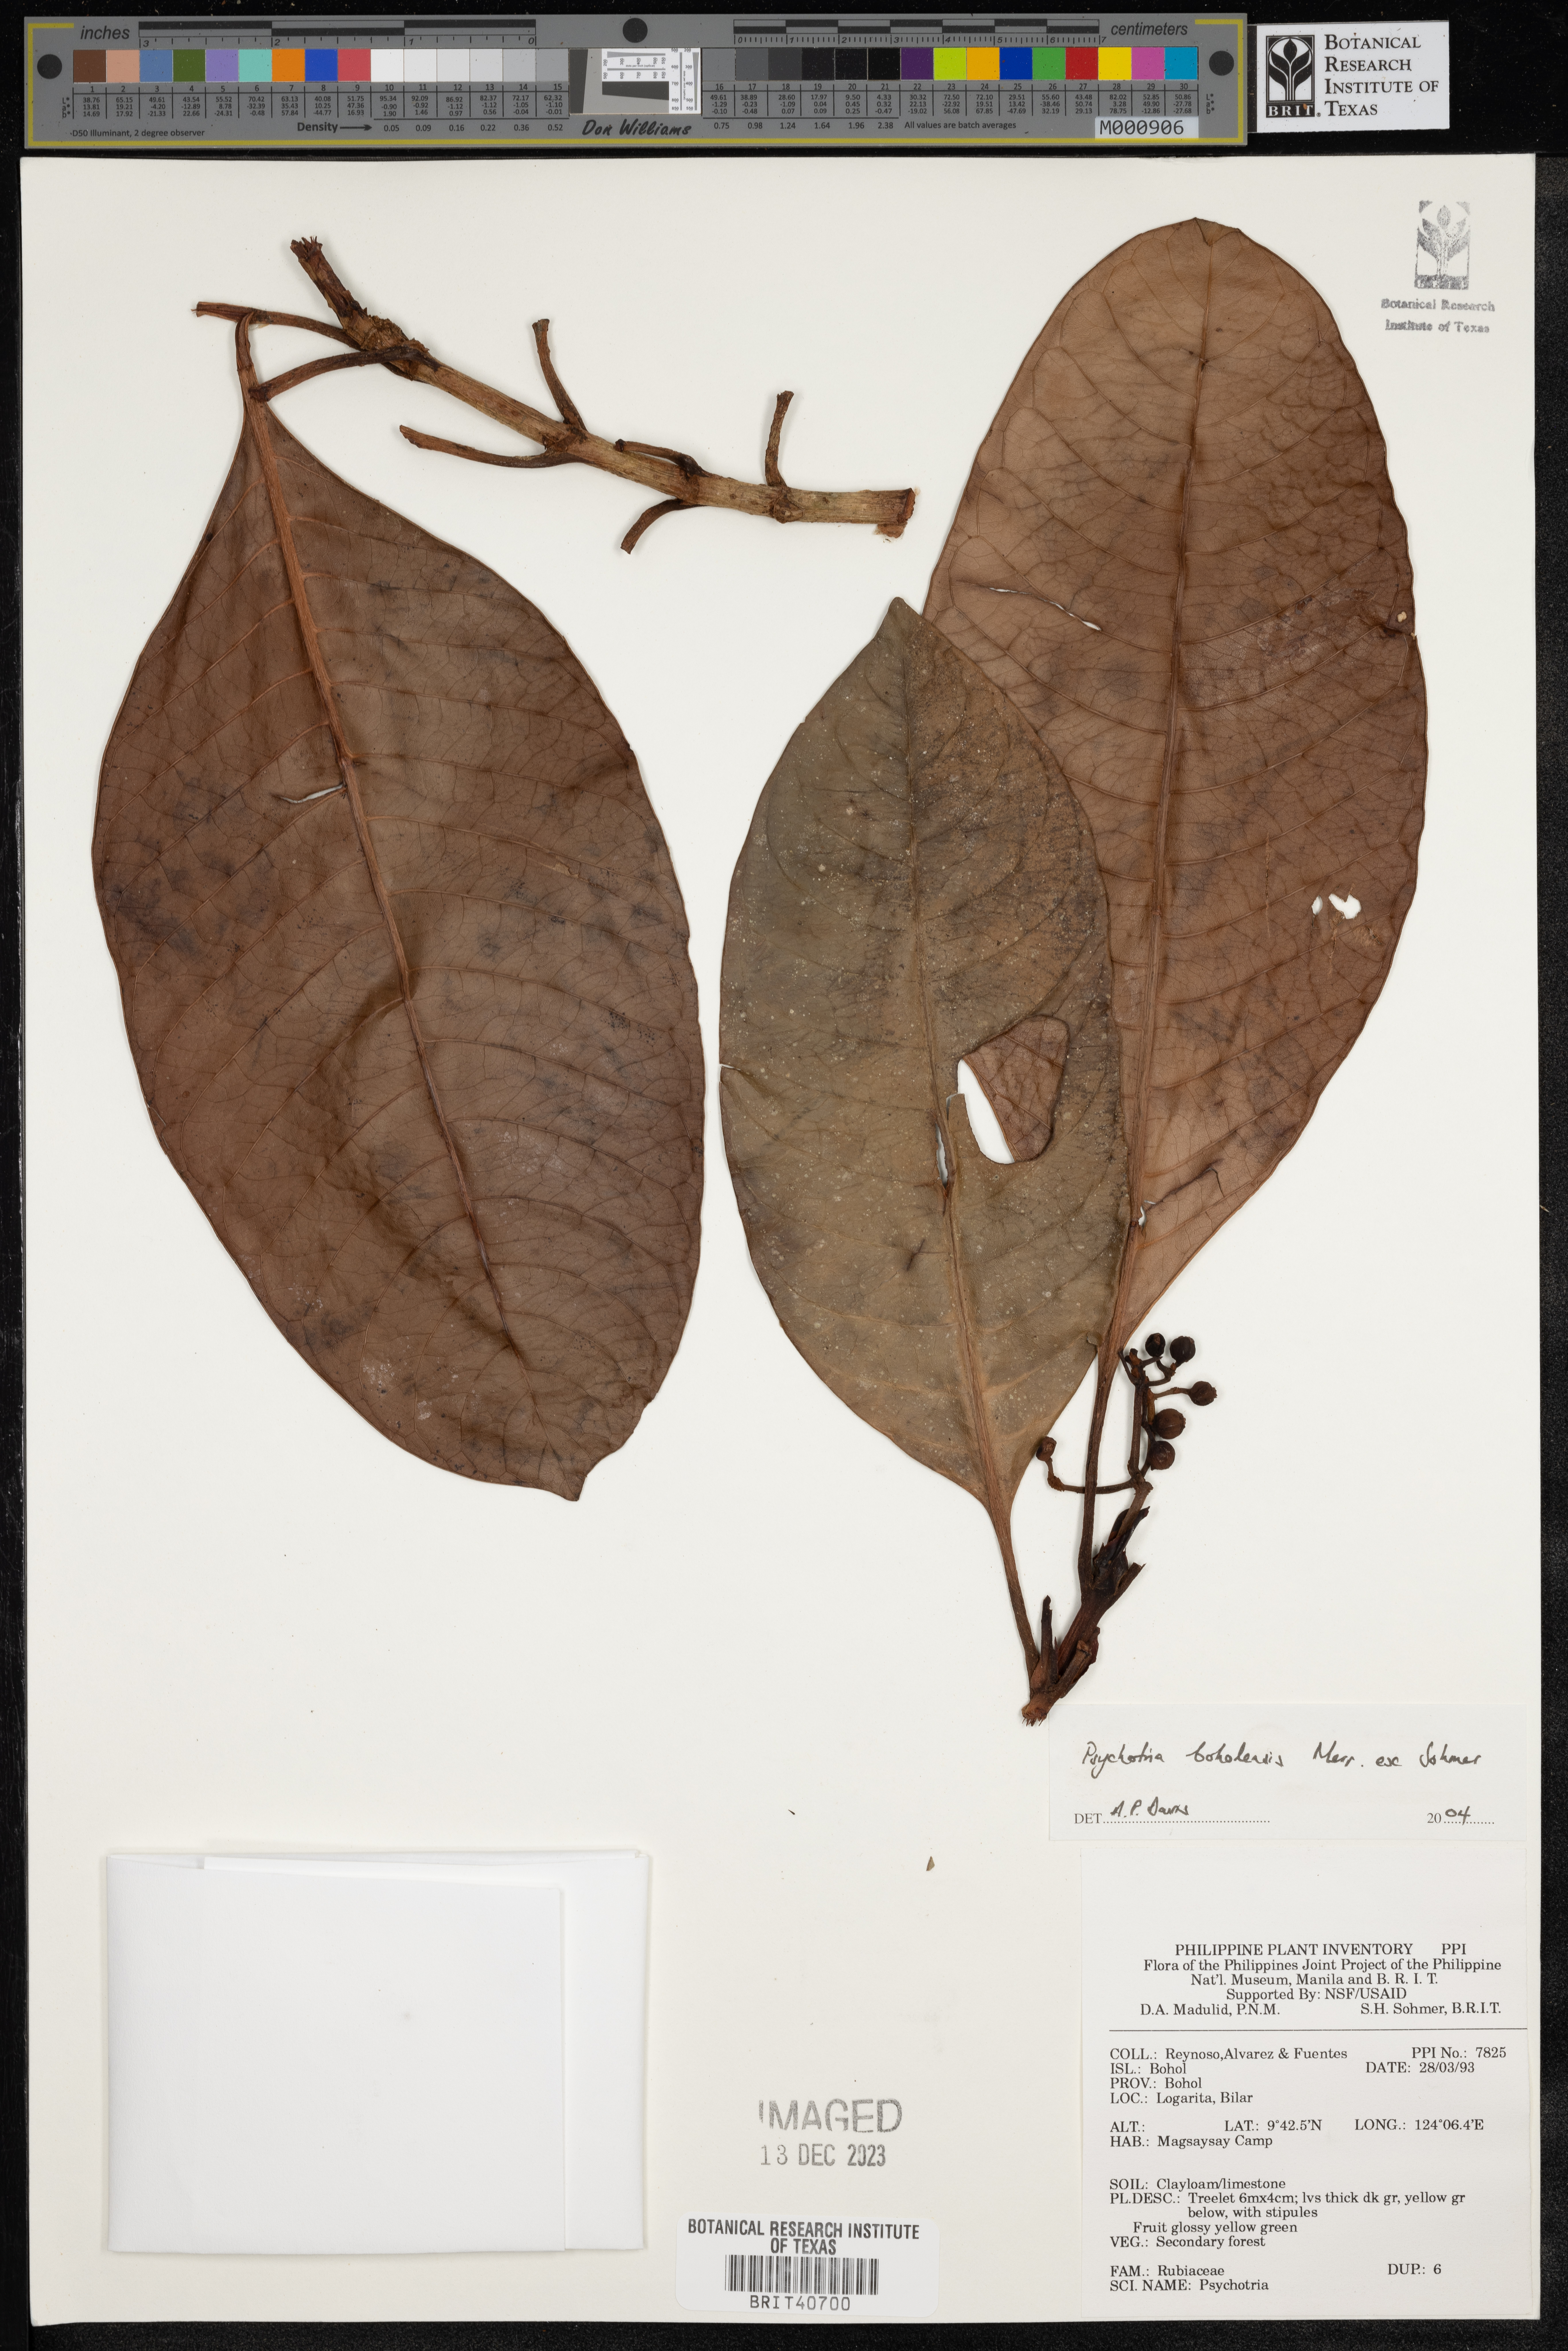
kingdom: Plantae
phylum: Tracheophyta
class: Magnoliopsida
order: Gentianales
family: Rubiaceae
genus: Psychotria
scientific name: Psychotria banahaensis
